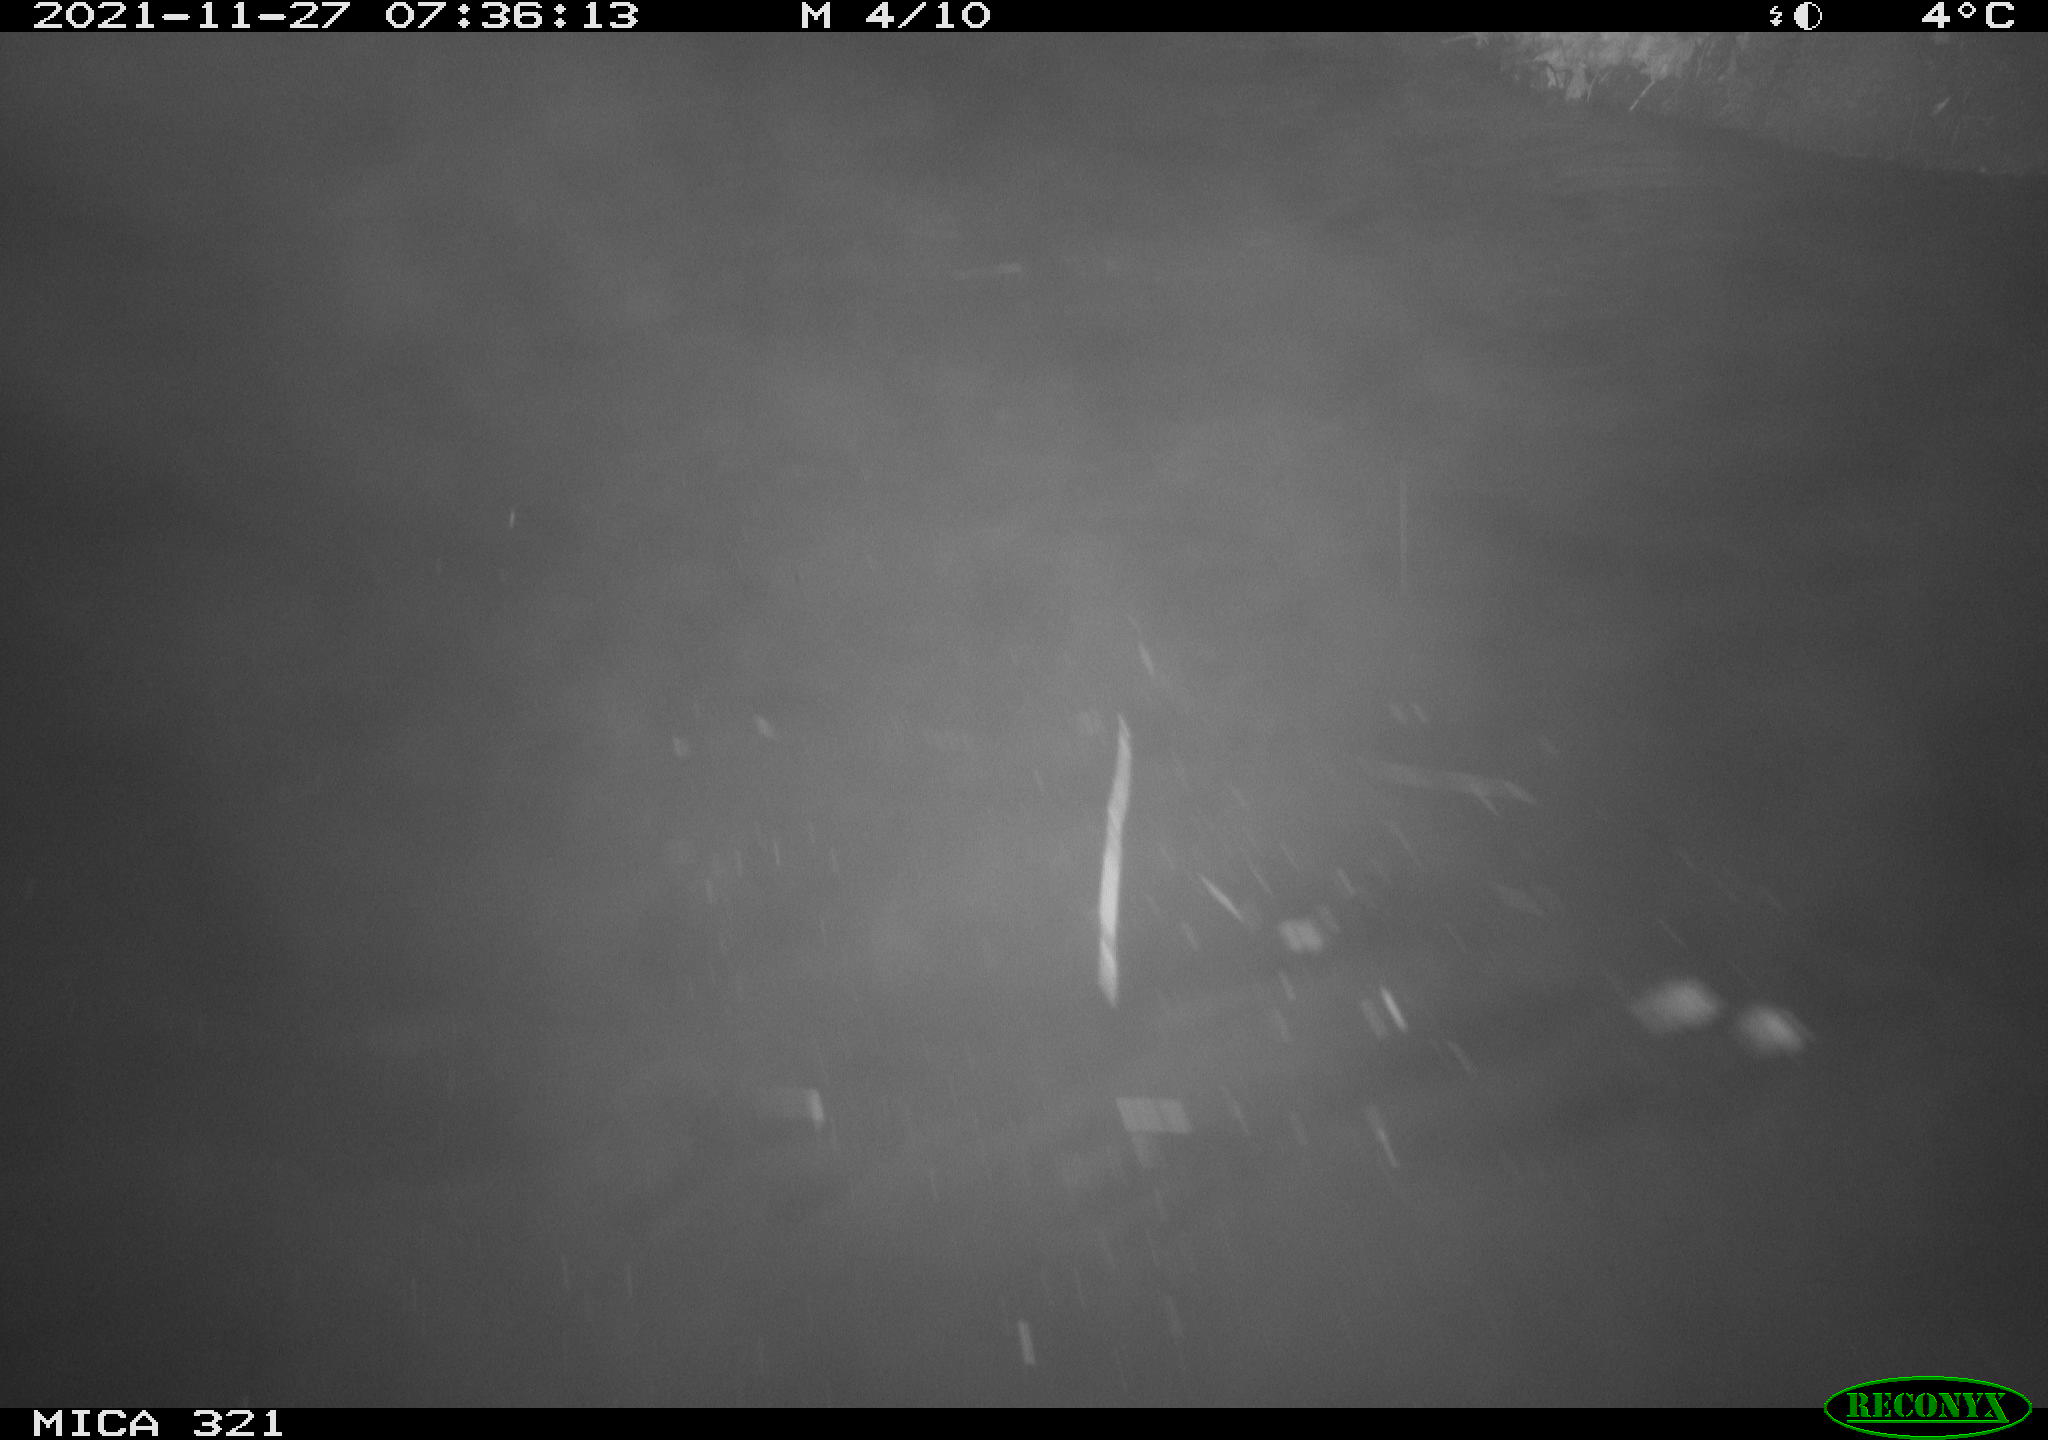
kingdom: Animalia
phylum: Chordata
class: Aves
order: Anseriformes
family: Anatidae
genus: Anas
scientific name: Anas platyrhynchos
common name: Mallard
